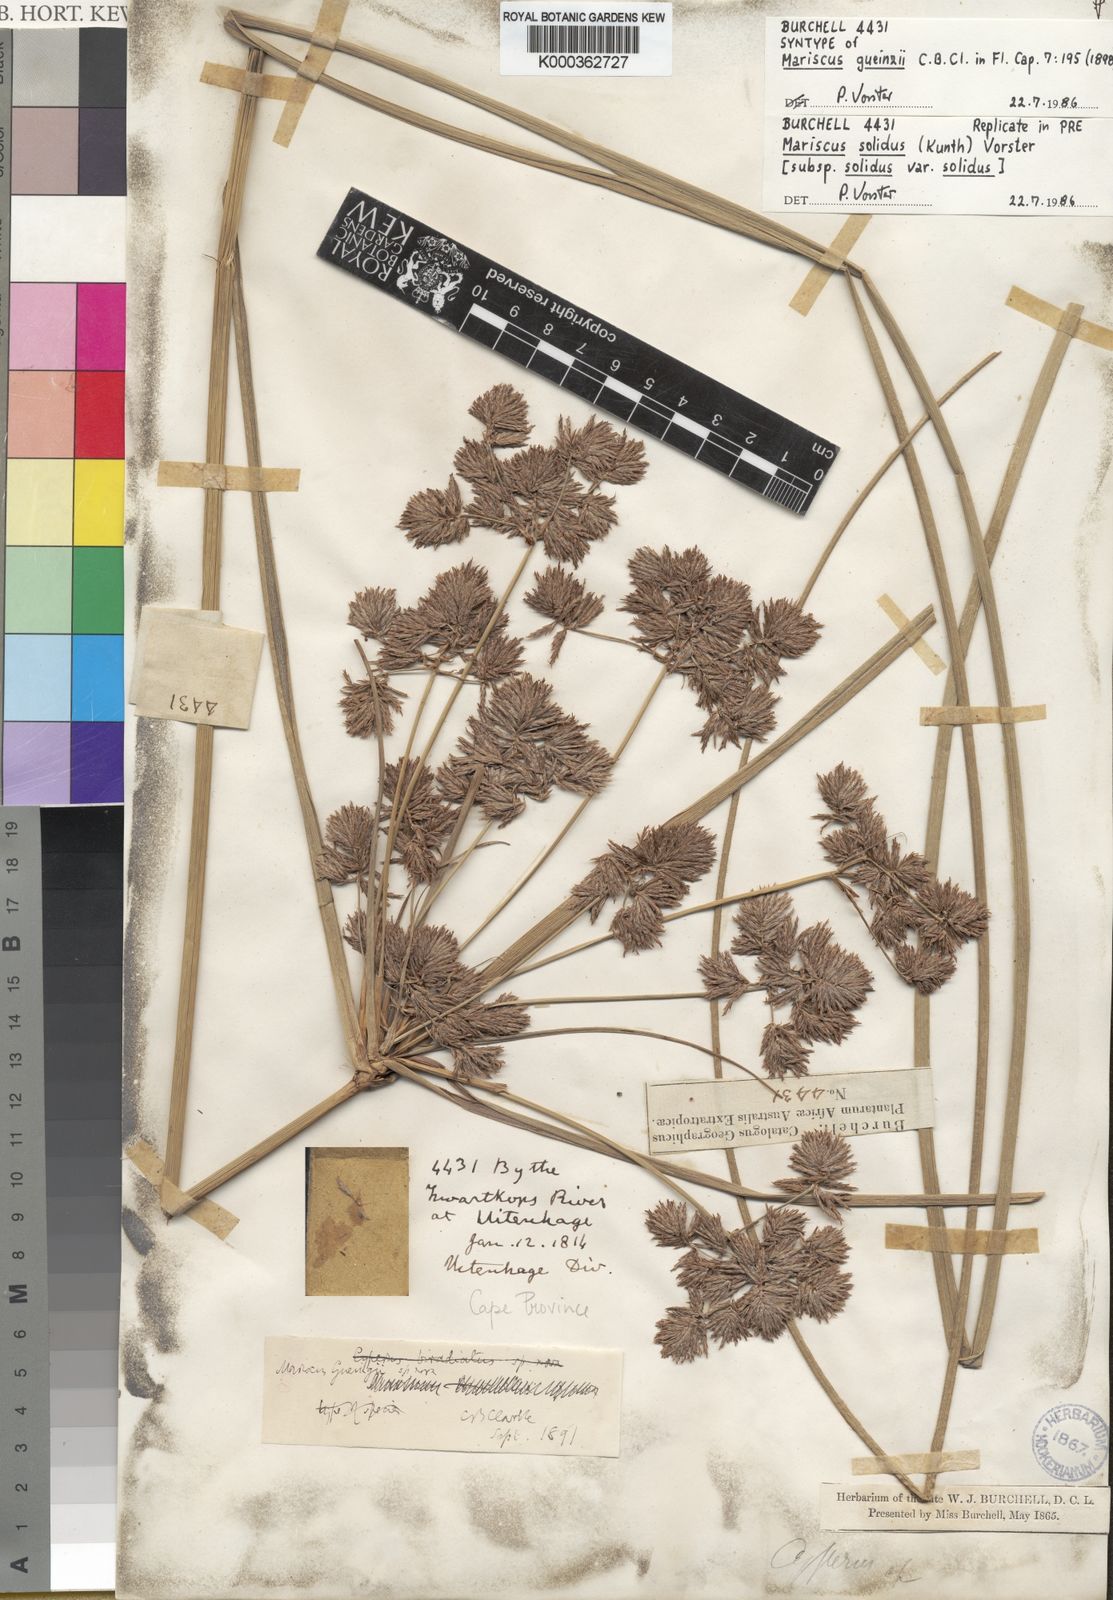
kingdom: Plantae
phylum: Tracheophyta
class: Liliopsida
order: Poales
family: Cyperaceae
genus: Cyperus
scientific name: Cyperus solidus
